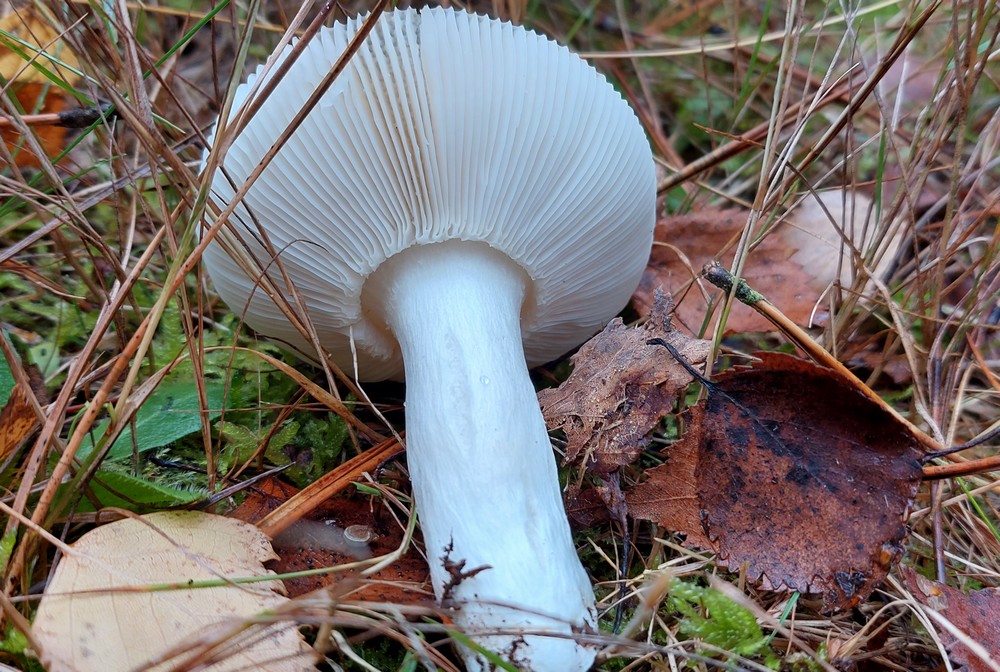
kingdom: Fungi
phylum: Basidiomycota
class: Agaricomycetes
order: Russulales
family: Russulaceae
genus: Russula
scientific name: Russula aeruginea
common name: græsgrøn skørhat
